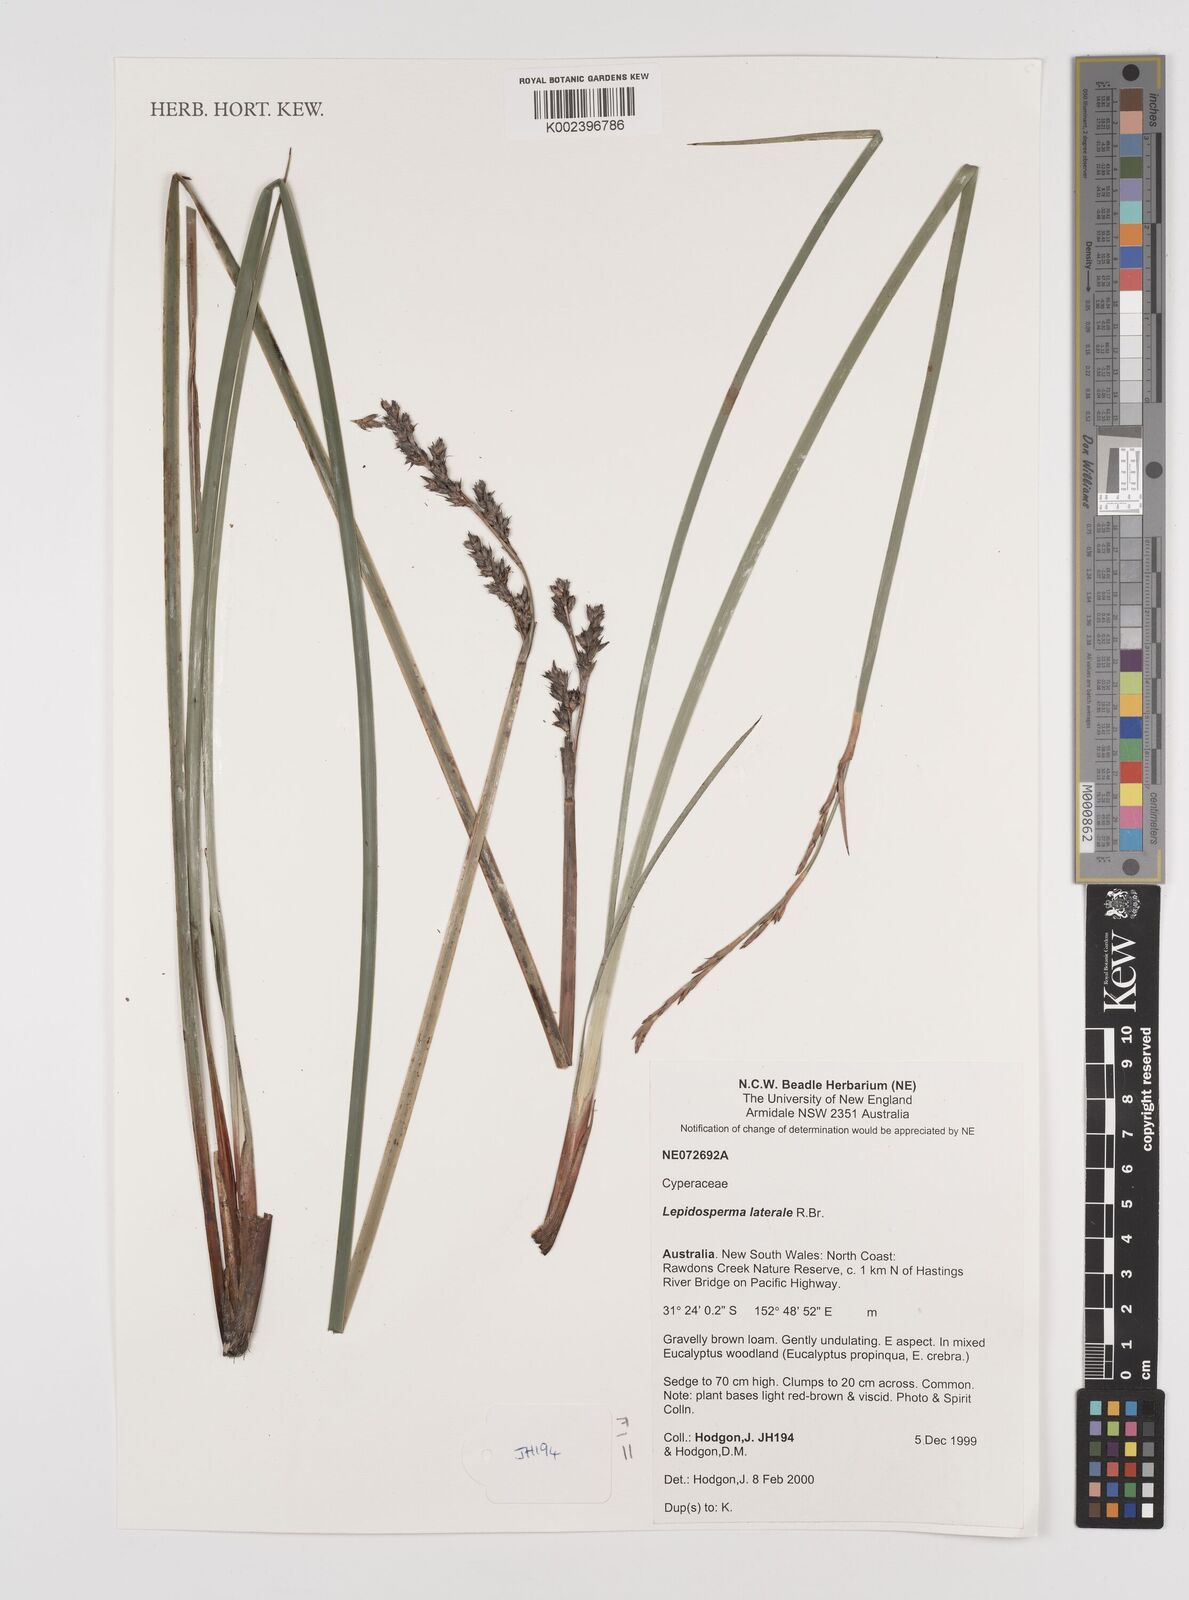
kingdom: Plantae
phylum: Tracheophyta
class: Liliopsida
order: Poales
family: Cyperaceae
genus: Lepidosperma
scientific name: Lepidosperma laterale
